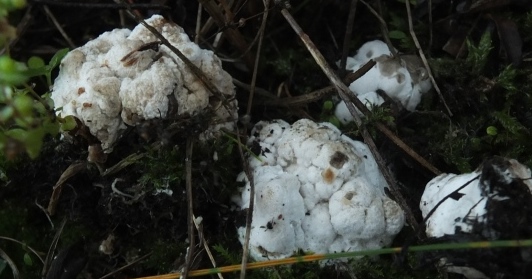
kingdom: Fungi
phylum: Basidiomycota
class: Agaricomycetes
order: Agaricales
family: Hygrophoraceae
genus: Arrhenia
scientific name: Arrhenia acerosa
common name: muslinge-fontænehat
